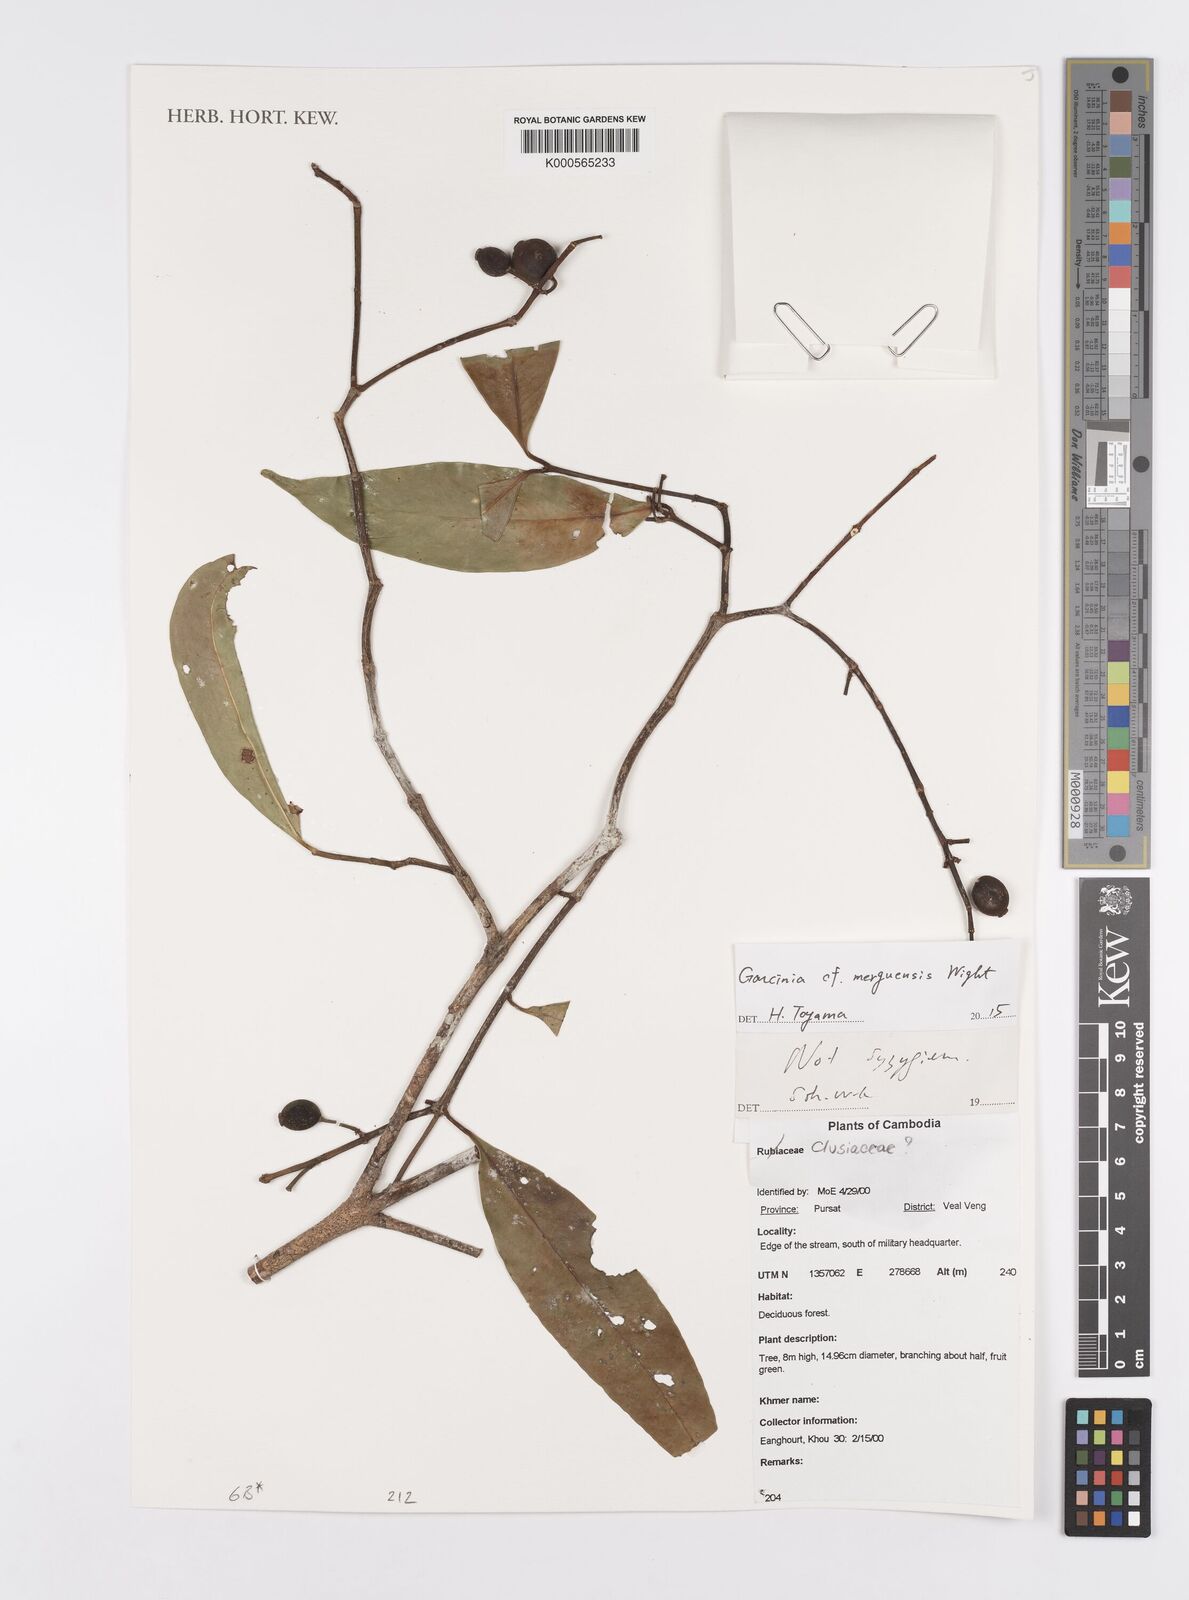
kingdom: Plantae
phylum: Tracheophyta
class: Magnoliopsida
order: Myrtales
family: Myrtaceae
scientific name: Myrtaceae
